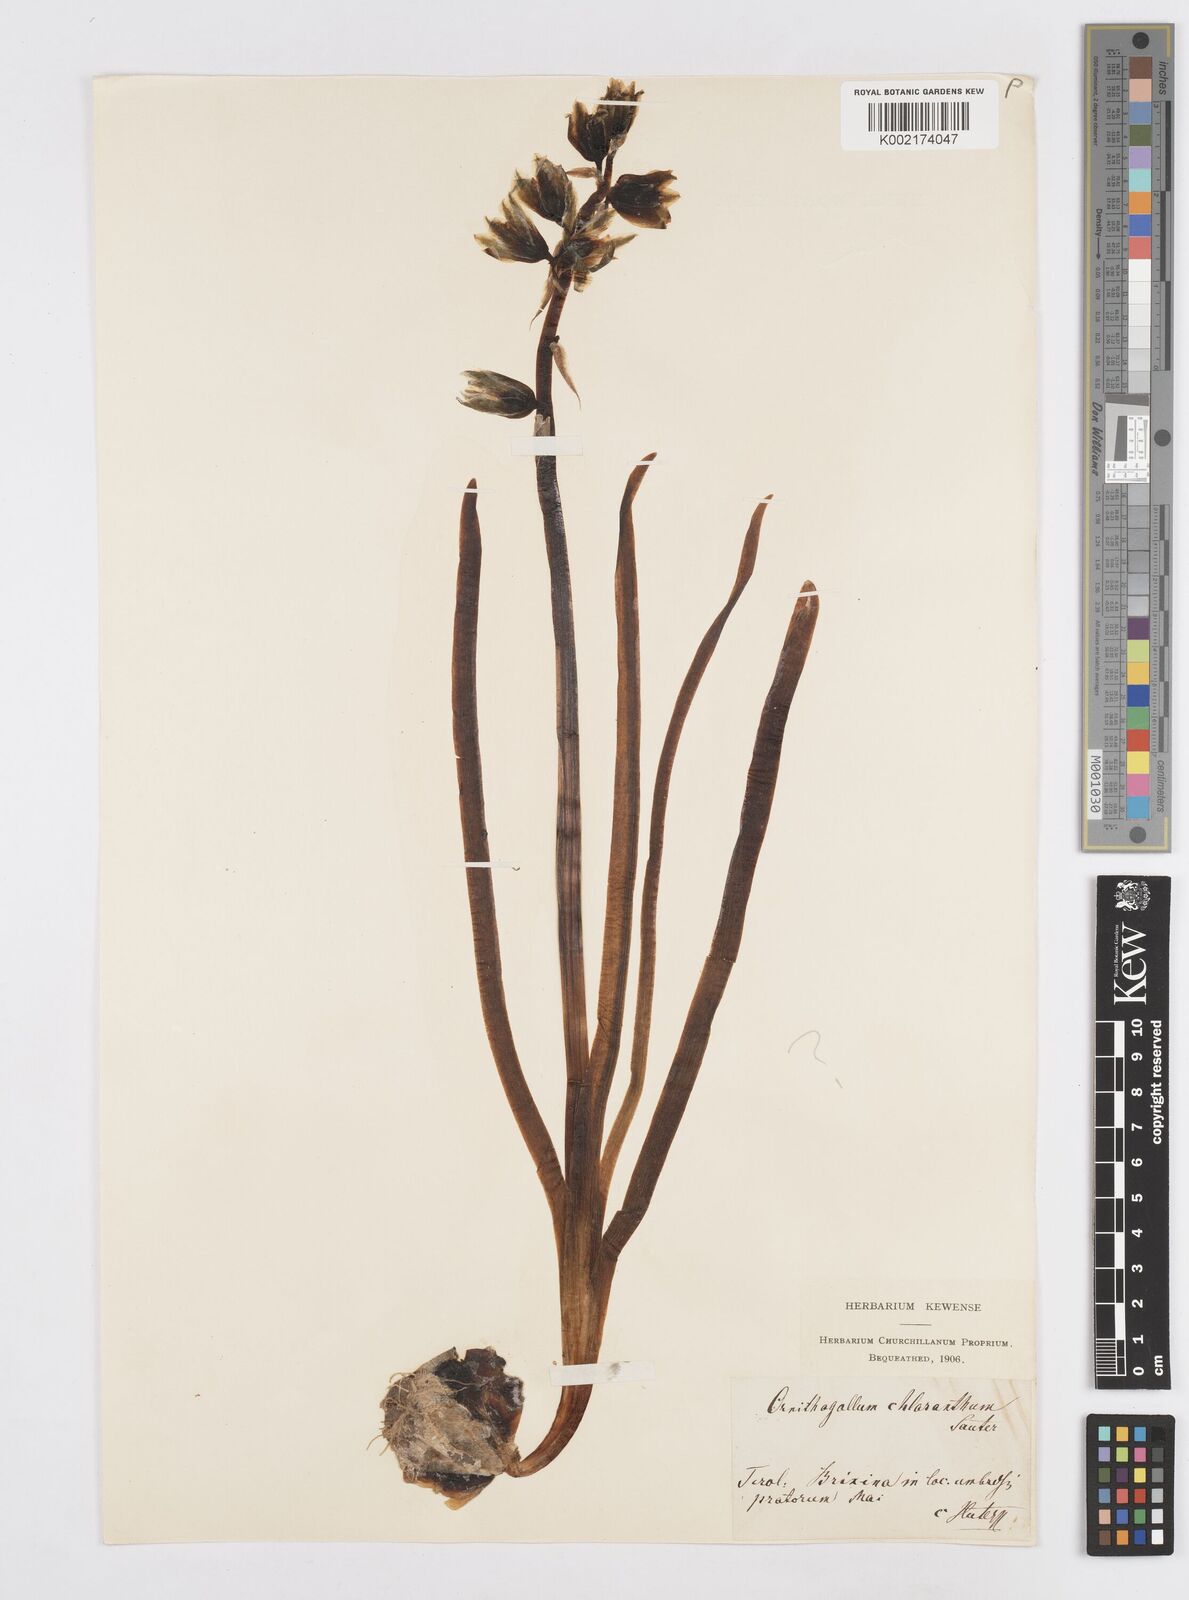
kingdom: Plantae
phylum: Tracheophyta
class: Liliopsida
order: Asparagales
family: Asparagaceae
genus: Ornithogalum
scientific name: Ornithogalum boucheanum
